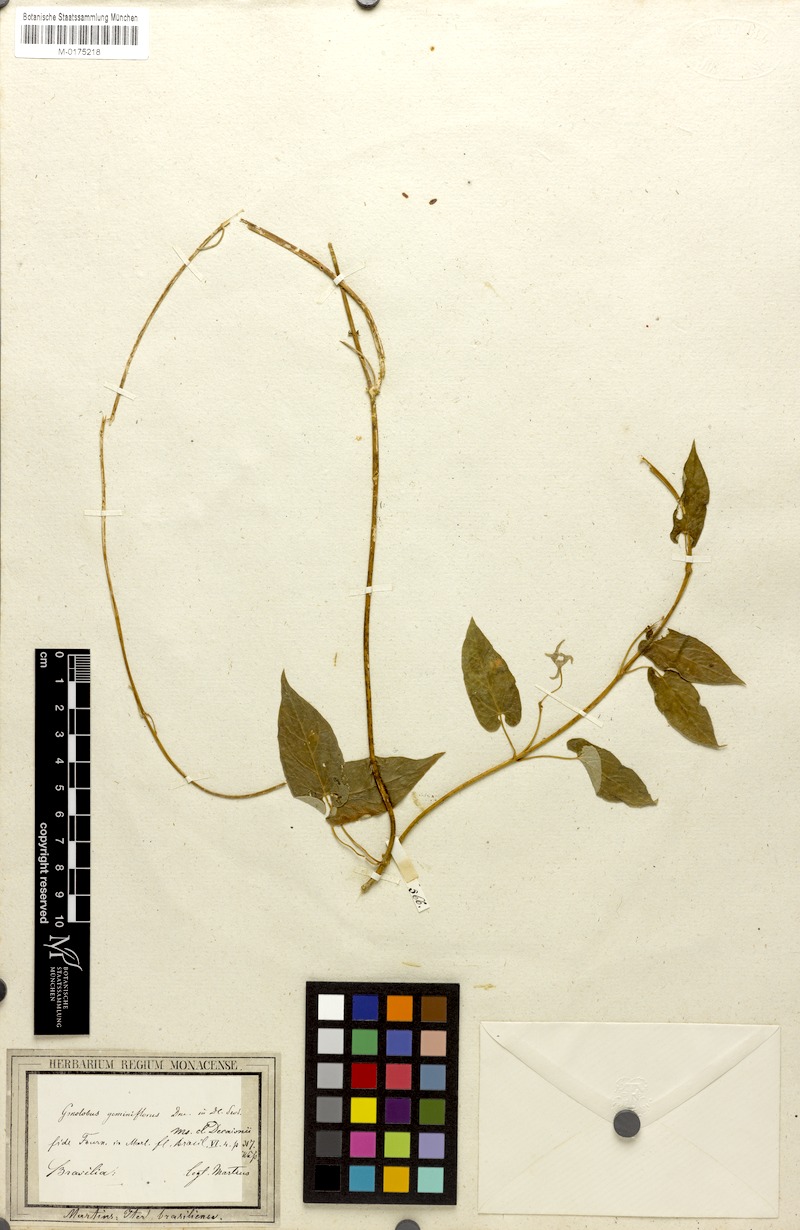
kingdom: Plantae
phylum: Tracheophyta
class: Magnoliopsida
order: Gentianales
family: Apocynaceae
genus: Diplolepis
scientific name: Diplolepis geminiflora
